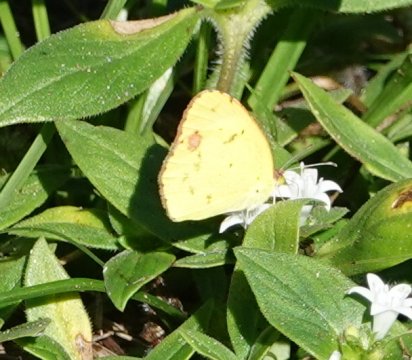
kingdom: Animalia
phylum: Arthropoda
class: Insecta
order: Lepidoptera
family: Pieridae
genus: Pyrisitia
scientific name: Pyrisitia lisa
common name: Little Yellow
